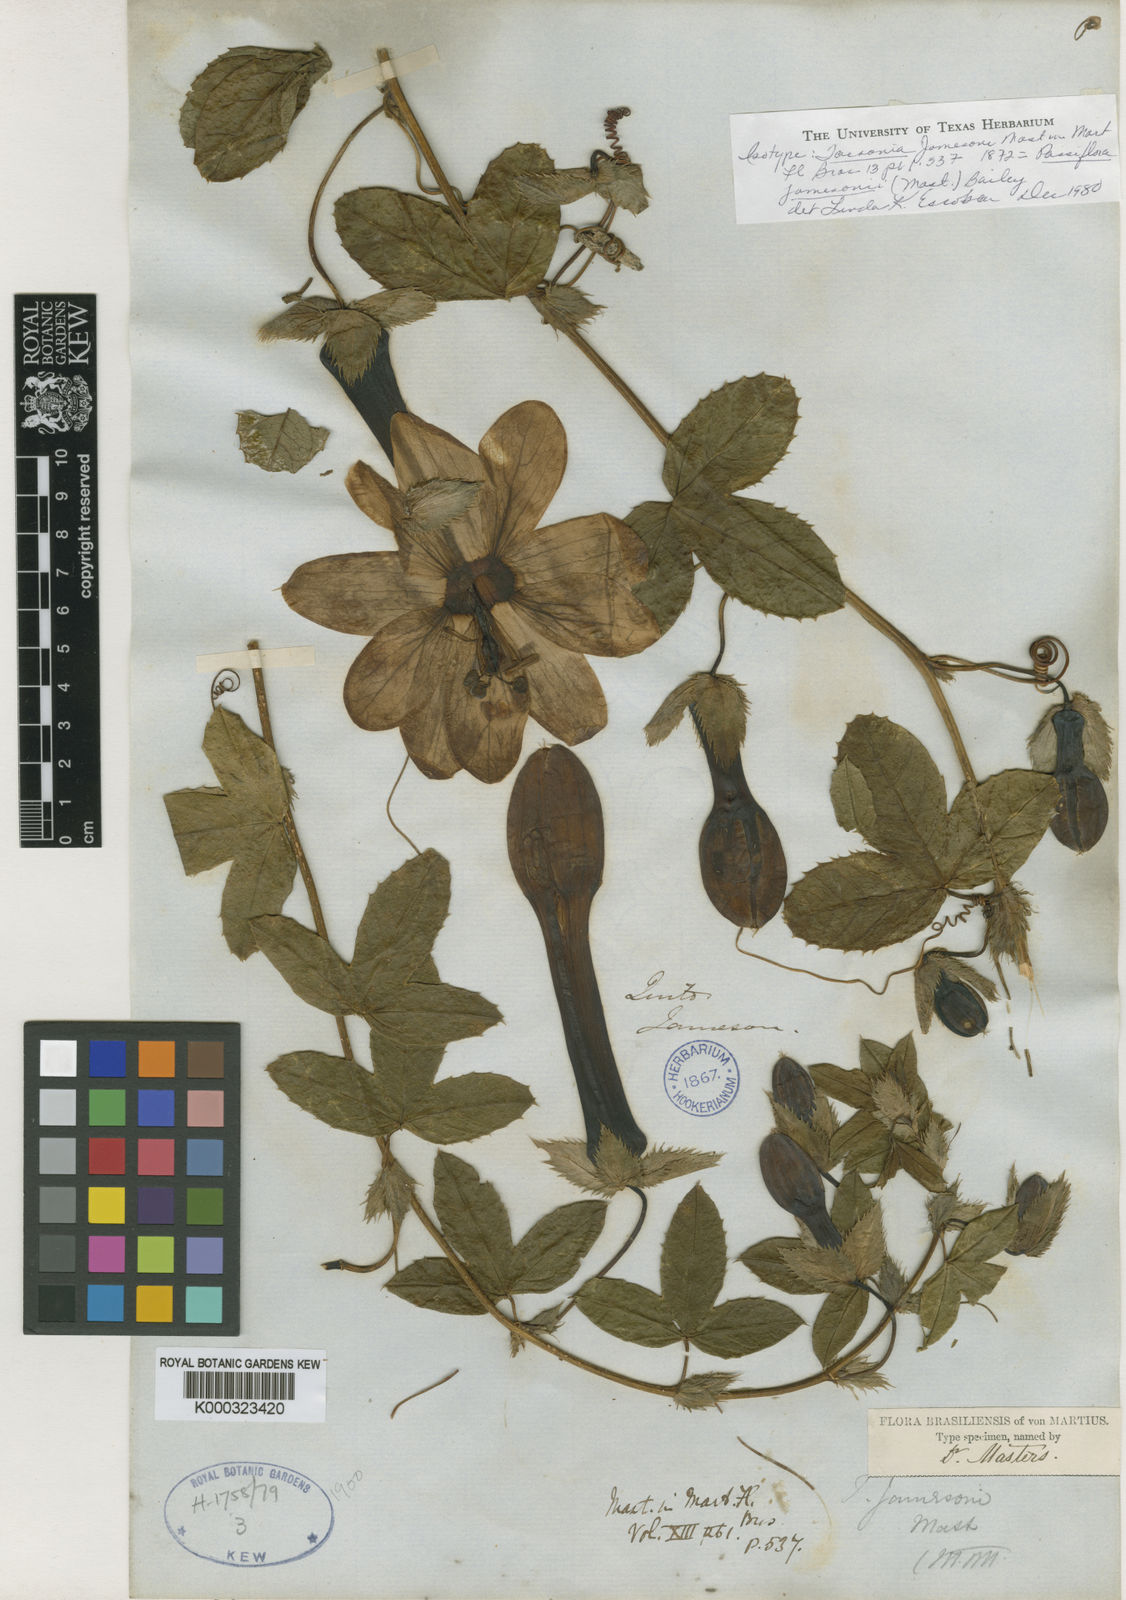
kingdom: Plantae
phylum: Tracheophyta
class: Magnoliopsida
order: Malpighiales
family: Passifloraceae
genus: Passiflora
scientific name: Passiflora jamesonii
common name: Passion vine
